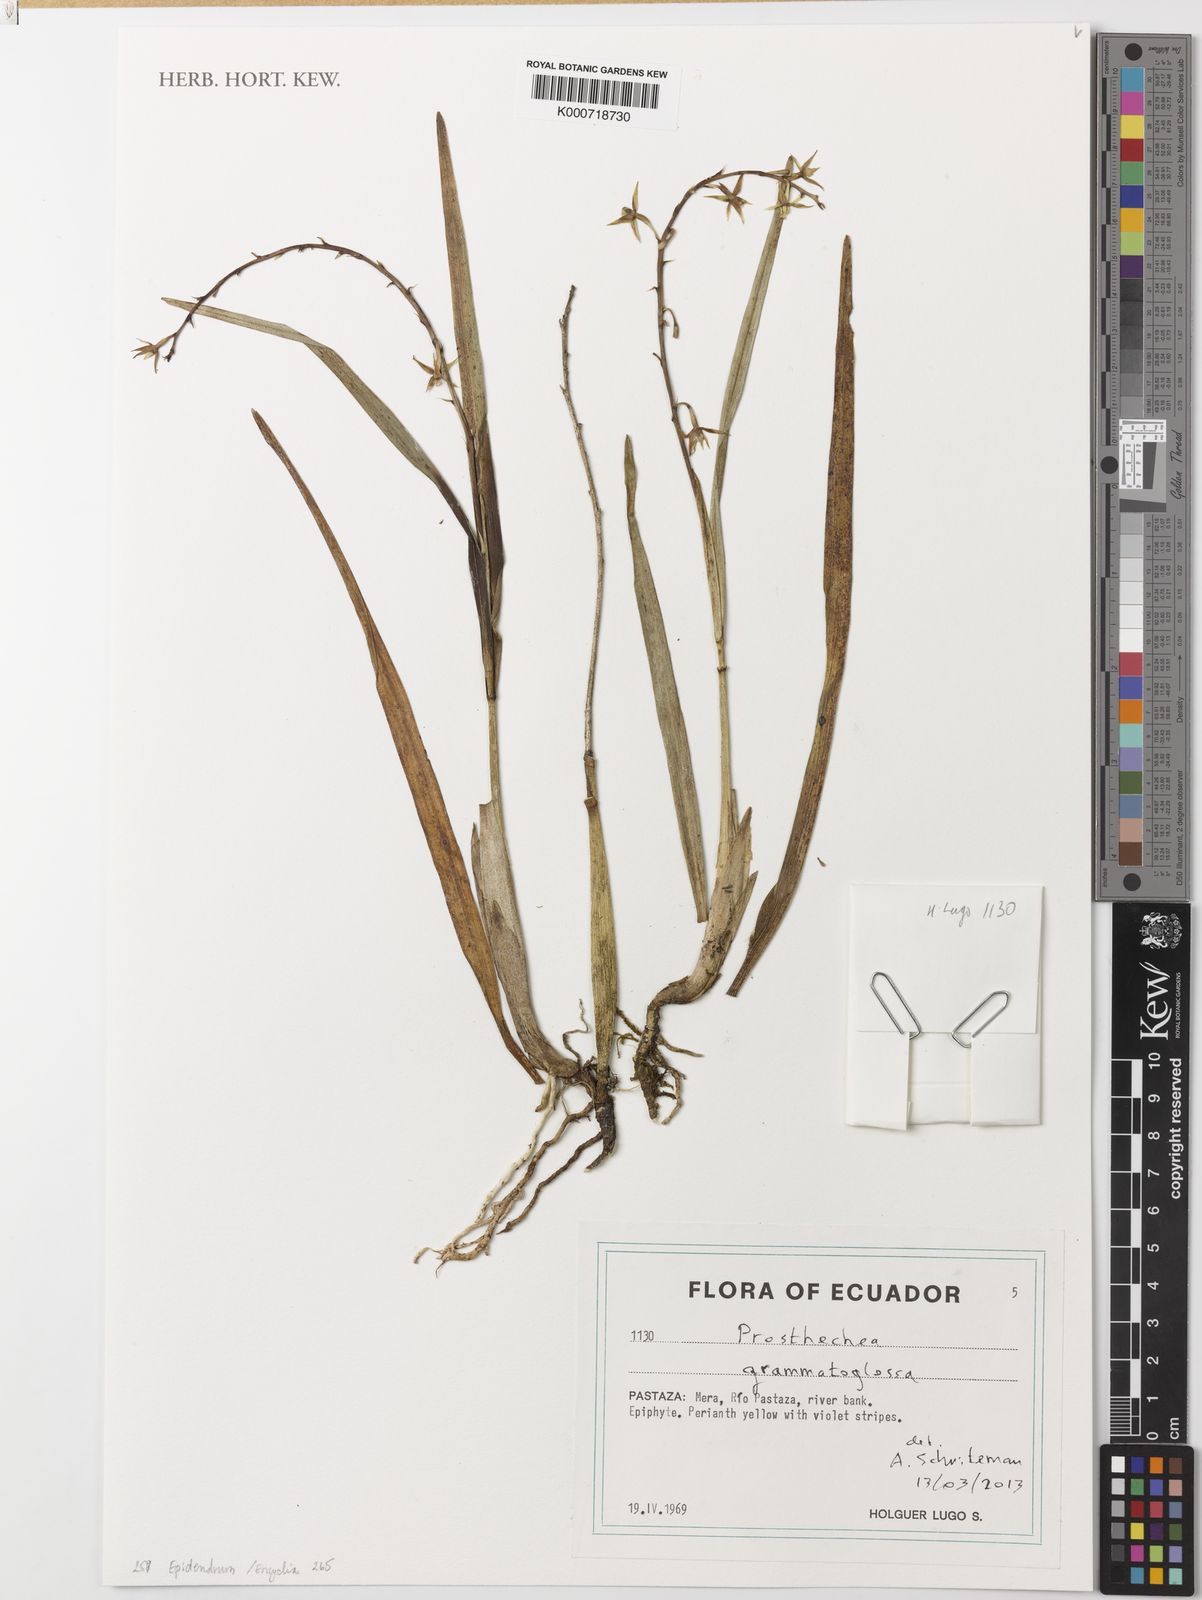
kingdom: Plantae
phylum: Tracheophyta
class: Liliopsida
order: Asparagales
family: Orchidaceae
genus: Prosthechea
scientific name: Prosthechea grammatoglossa
